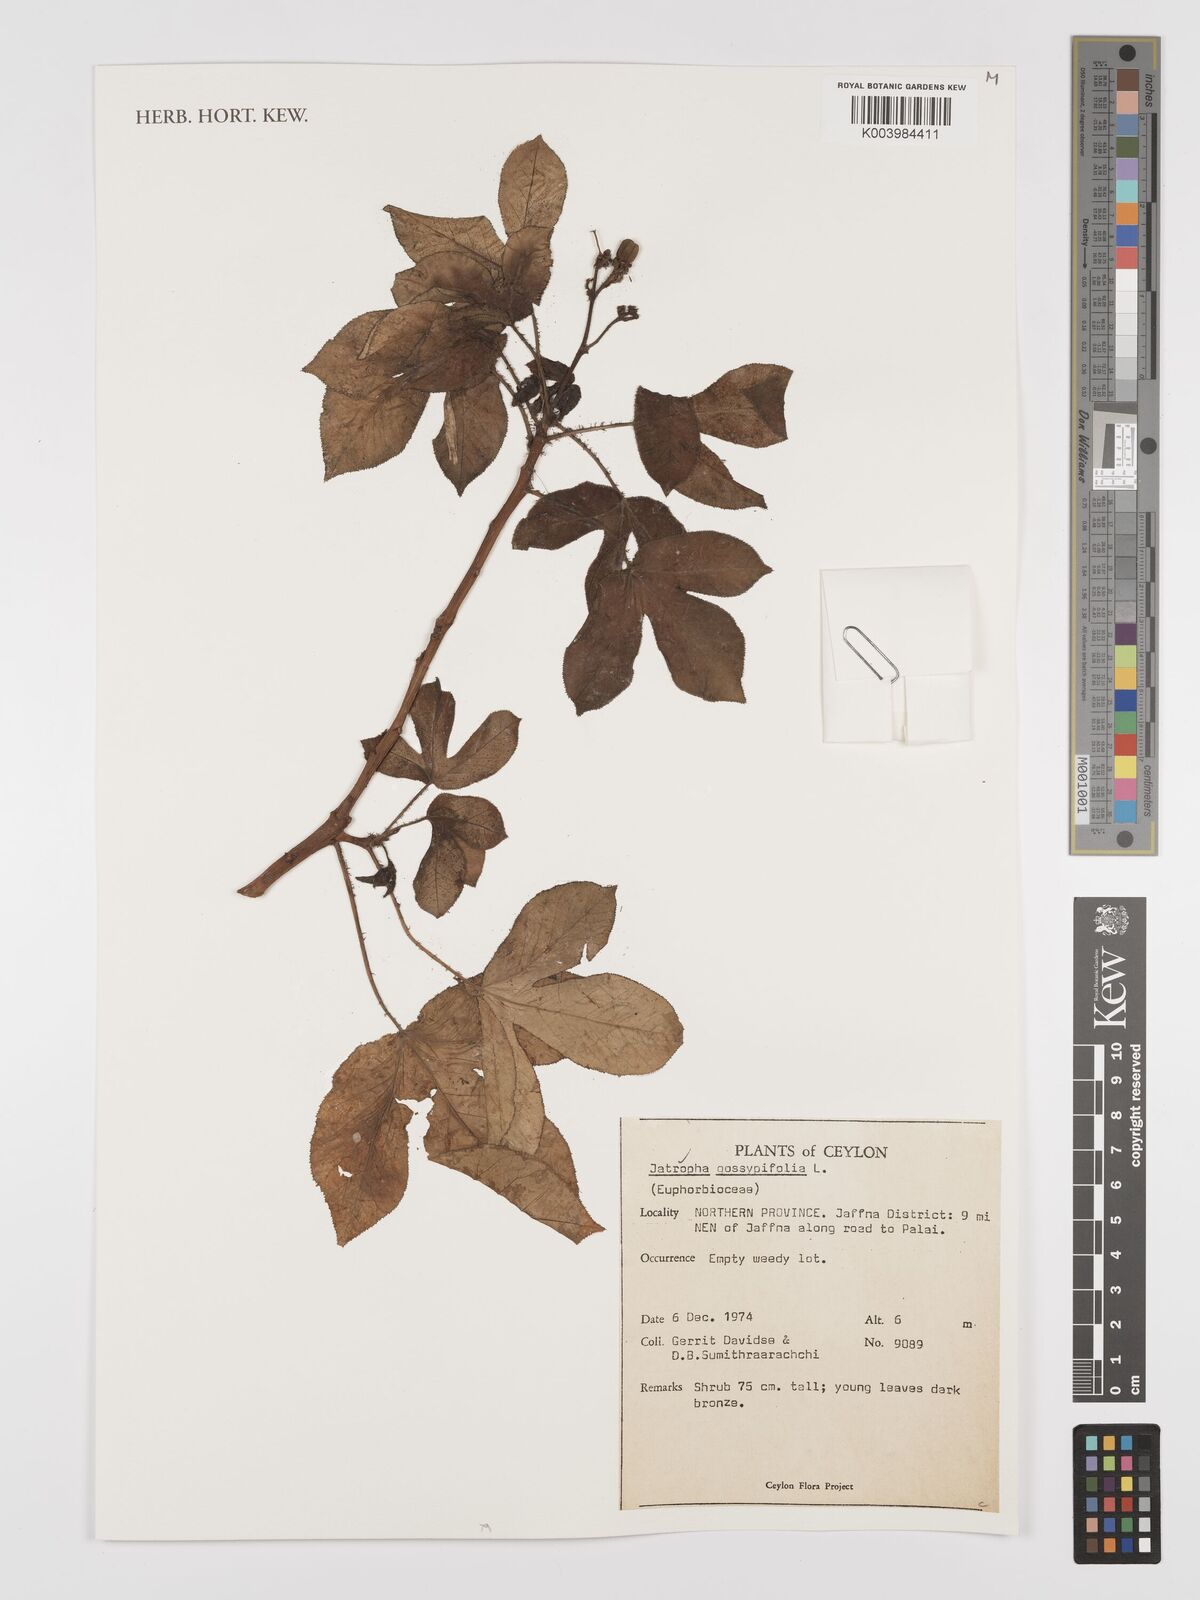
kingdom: Plantae
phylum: Tracheophyta
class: Magnoliopsida
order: Malpighiales
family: Euphorbiaceae
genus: Jatropha
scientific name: Jatropha gossypiifolia
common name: Bellyache bush
